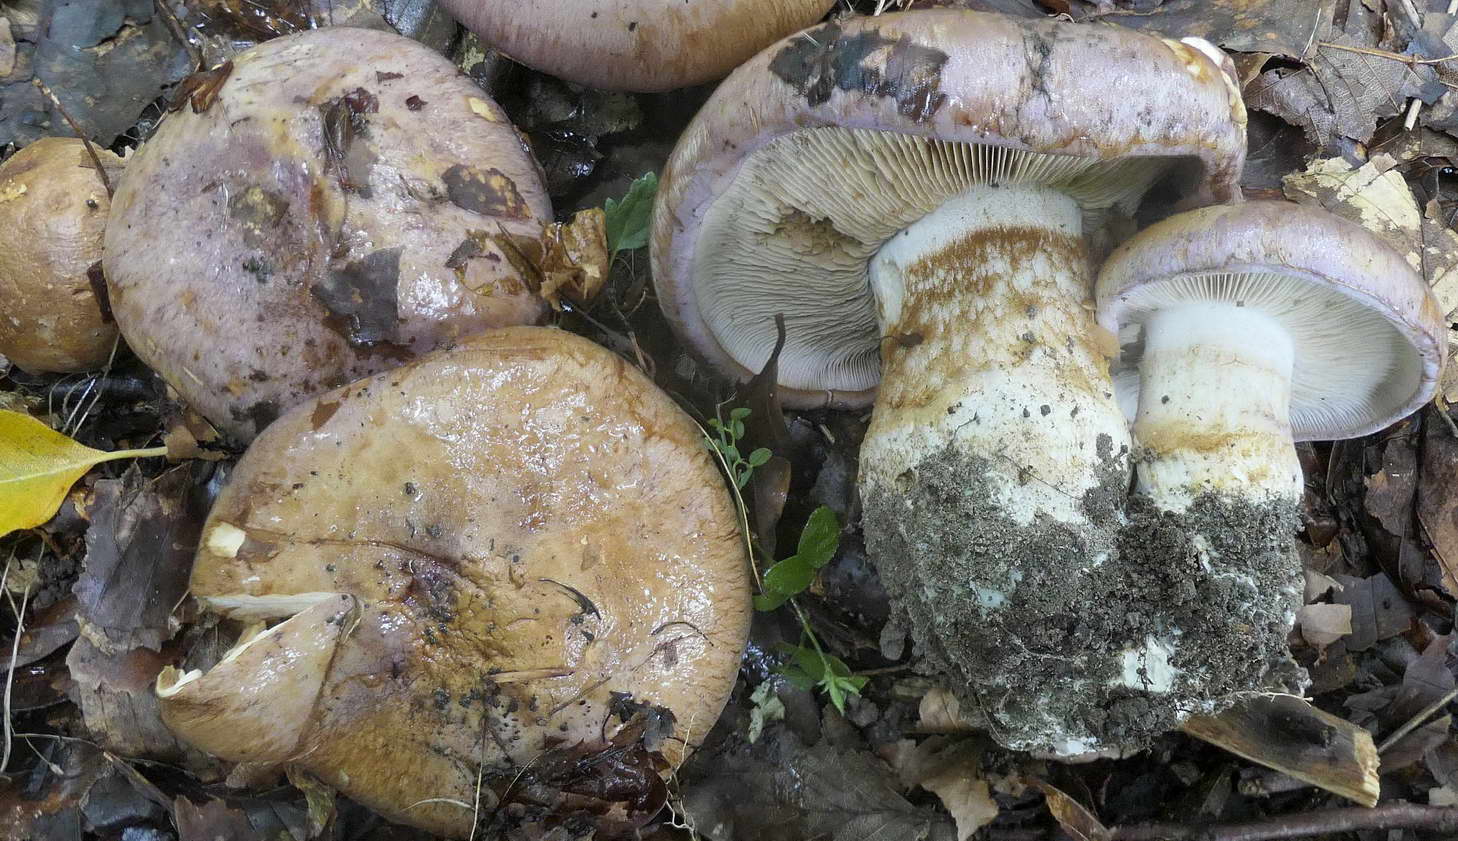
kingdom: Fungi
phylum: Basidiomycota
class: Agaricomycetes
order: Agaricales
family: Cortinariaceae
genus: Phlegmacium
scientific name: Phlegmacium balteatocumatile
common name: violettrådet slørhat
